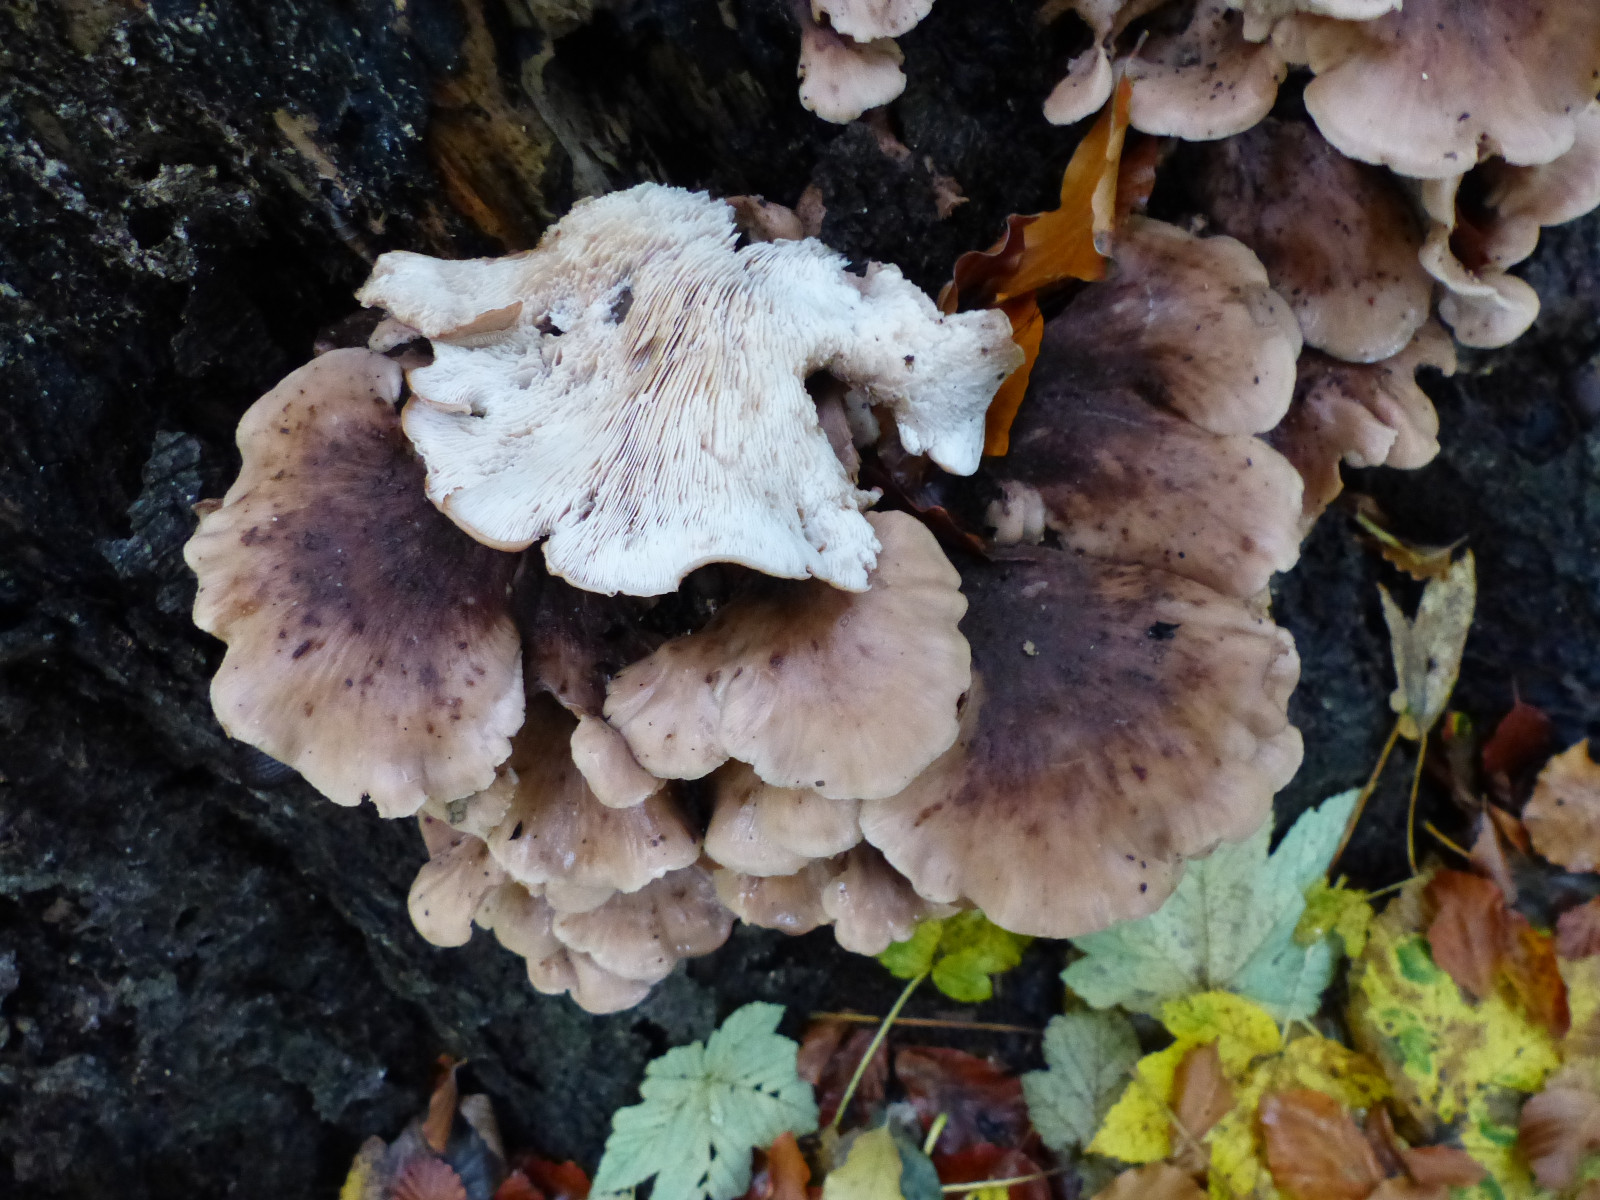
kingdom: Fungi
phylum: Basidiomycota
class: Agaricomycetes
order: Russulales
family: Auriscalpiaceae
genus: Lentinellus
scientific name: Lentinellus ursinus
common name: børstehåret savbladhat
